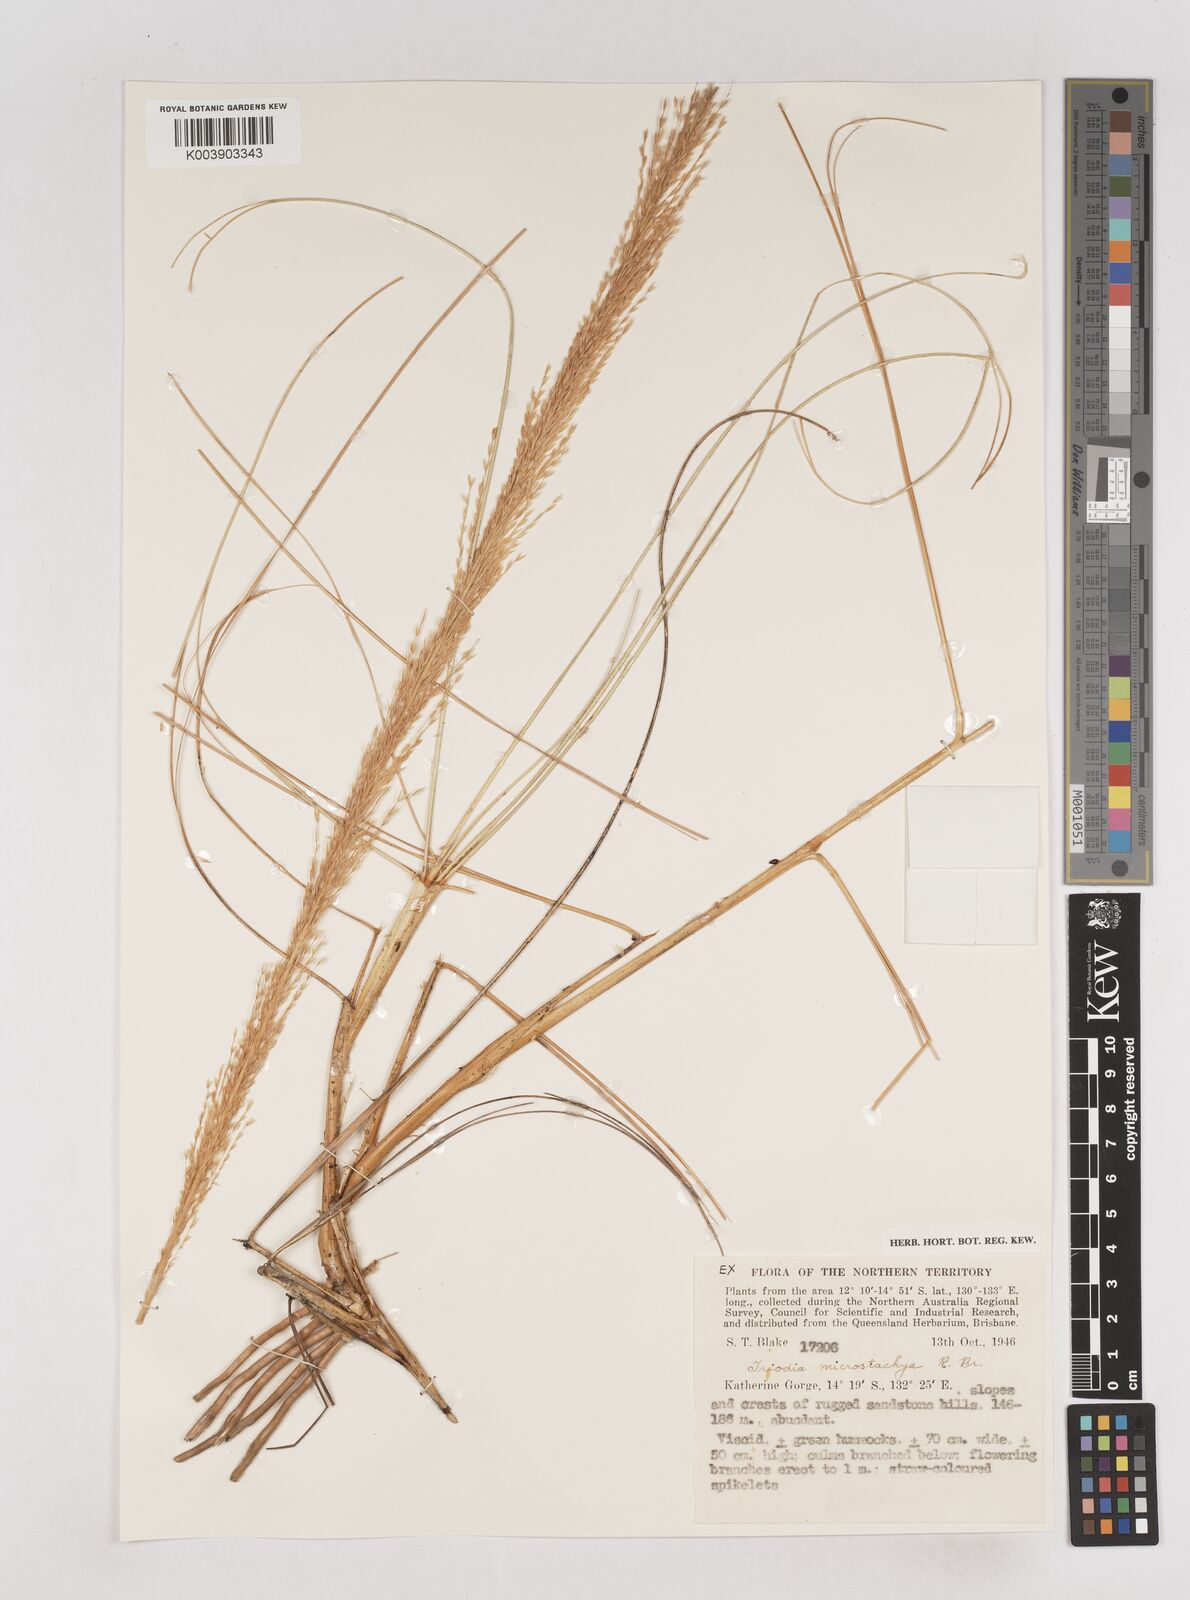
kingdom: Plantae
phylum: Tracheophyta
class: Liliopsida
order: Poales
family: Poaceae
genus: Triodia
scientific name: Triodia microstachya
